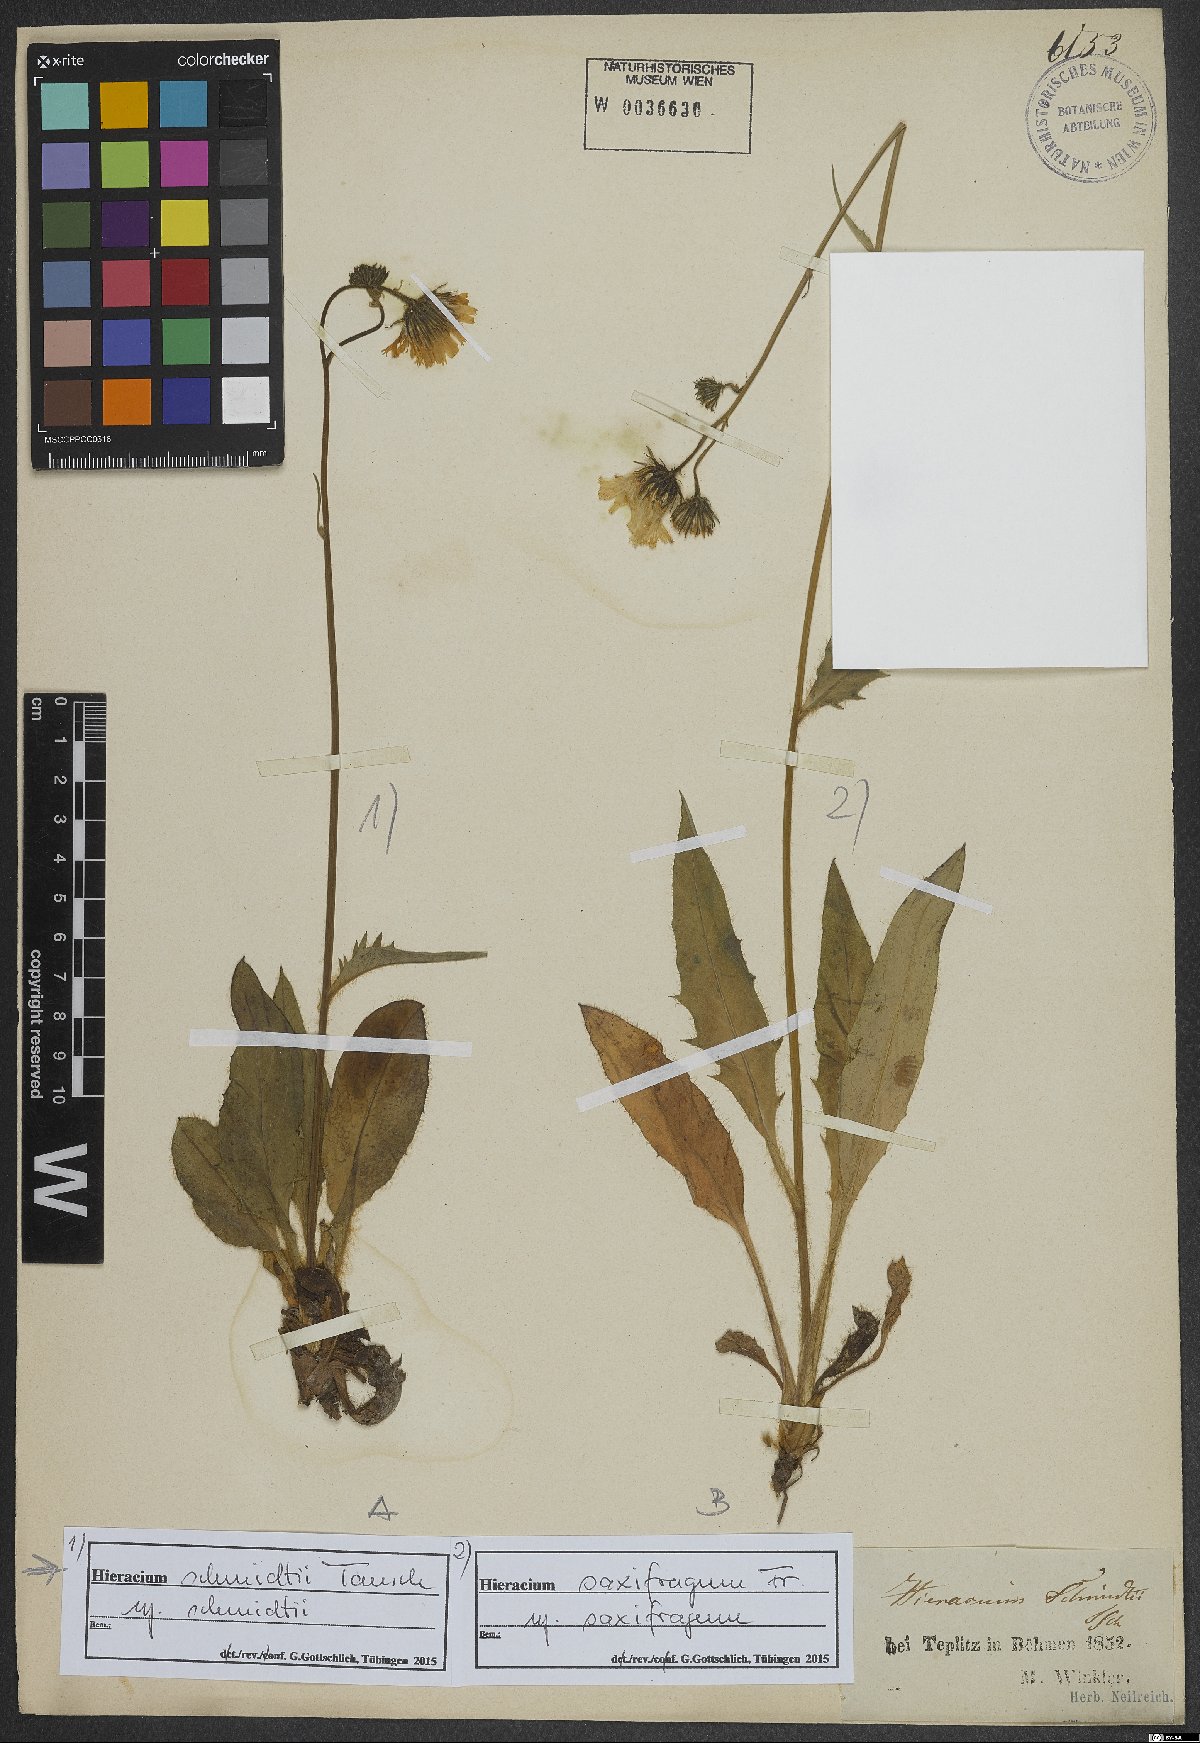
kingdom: Plantae
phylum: Tracheophyta
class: Magnoliopsida
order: Asterales
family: Asteraceae
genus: Hieracium
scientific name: Hieracium schmidtii
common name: Schmidt's hawkweed
